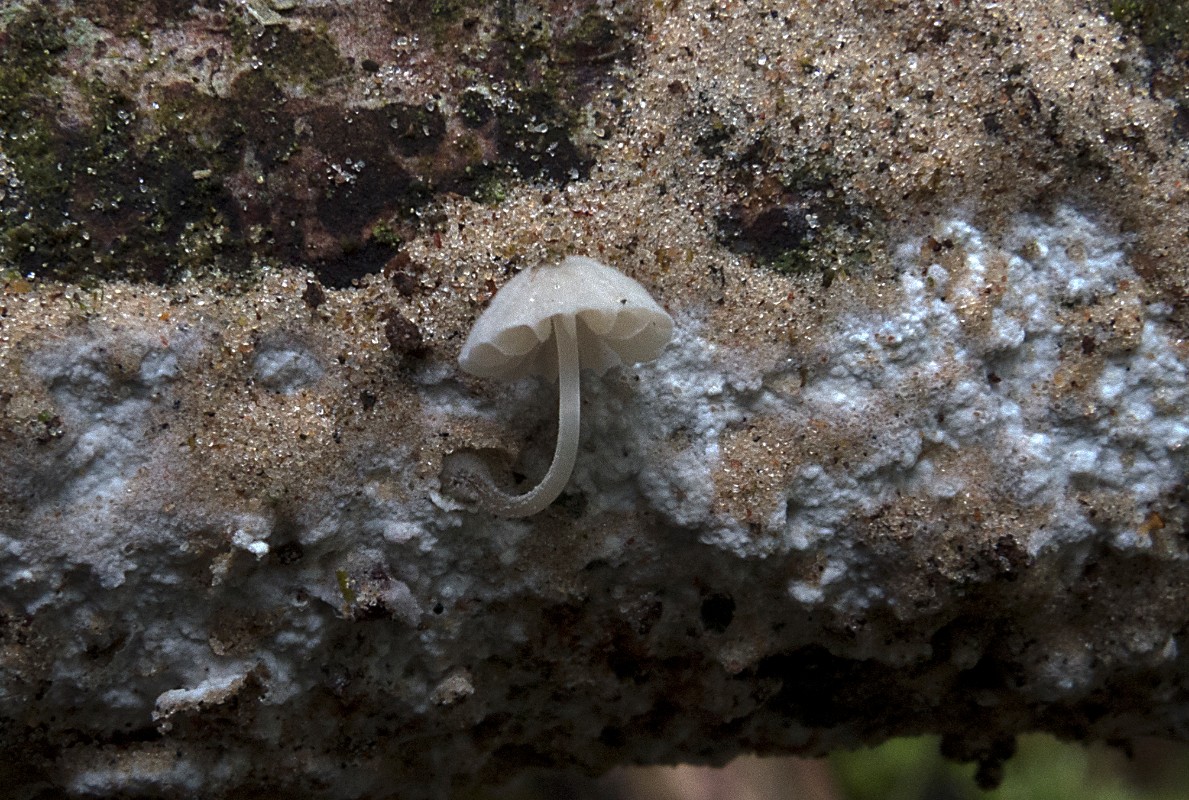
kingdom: Fungi
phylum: Basidiomycota
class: Agaricomycetes
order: Agaricales
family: Mycenaceae
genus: Mycena
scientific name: Mycena clavularis
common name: dunskivet huesvamp
